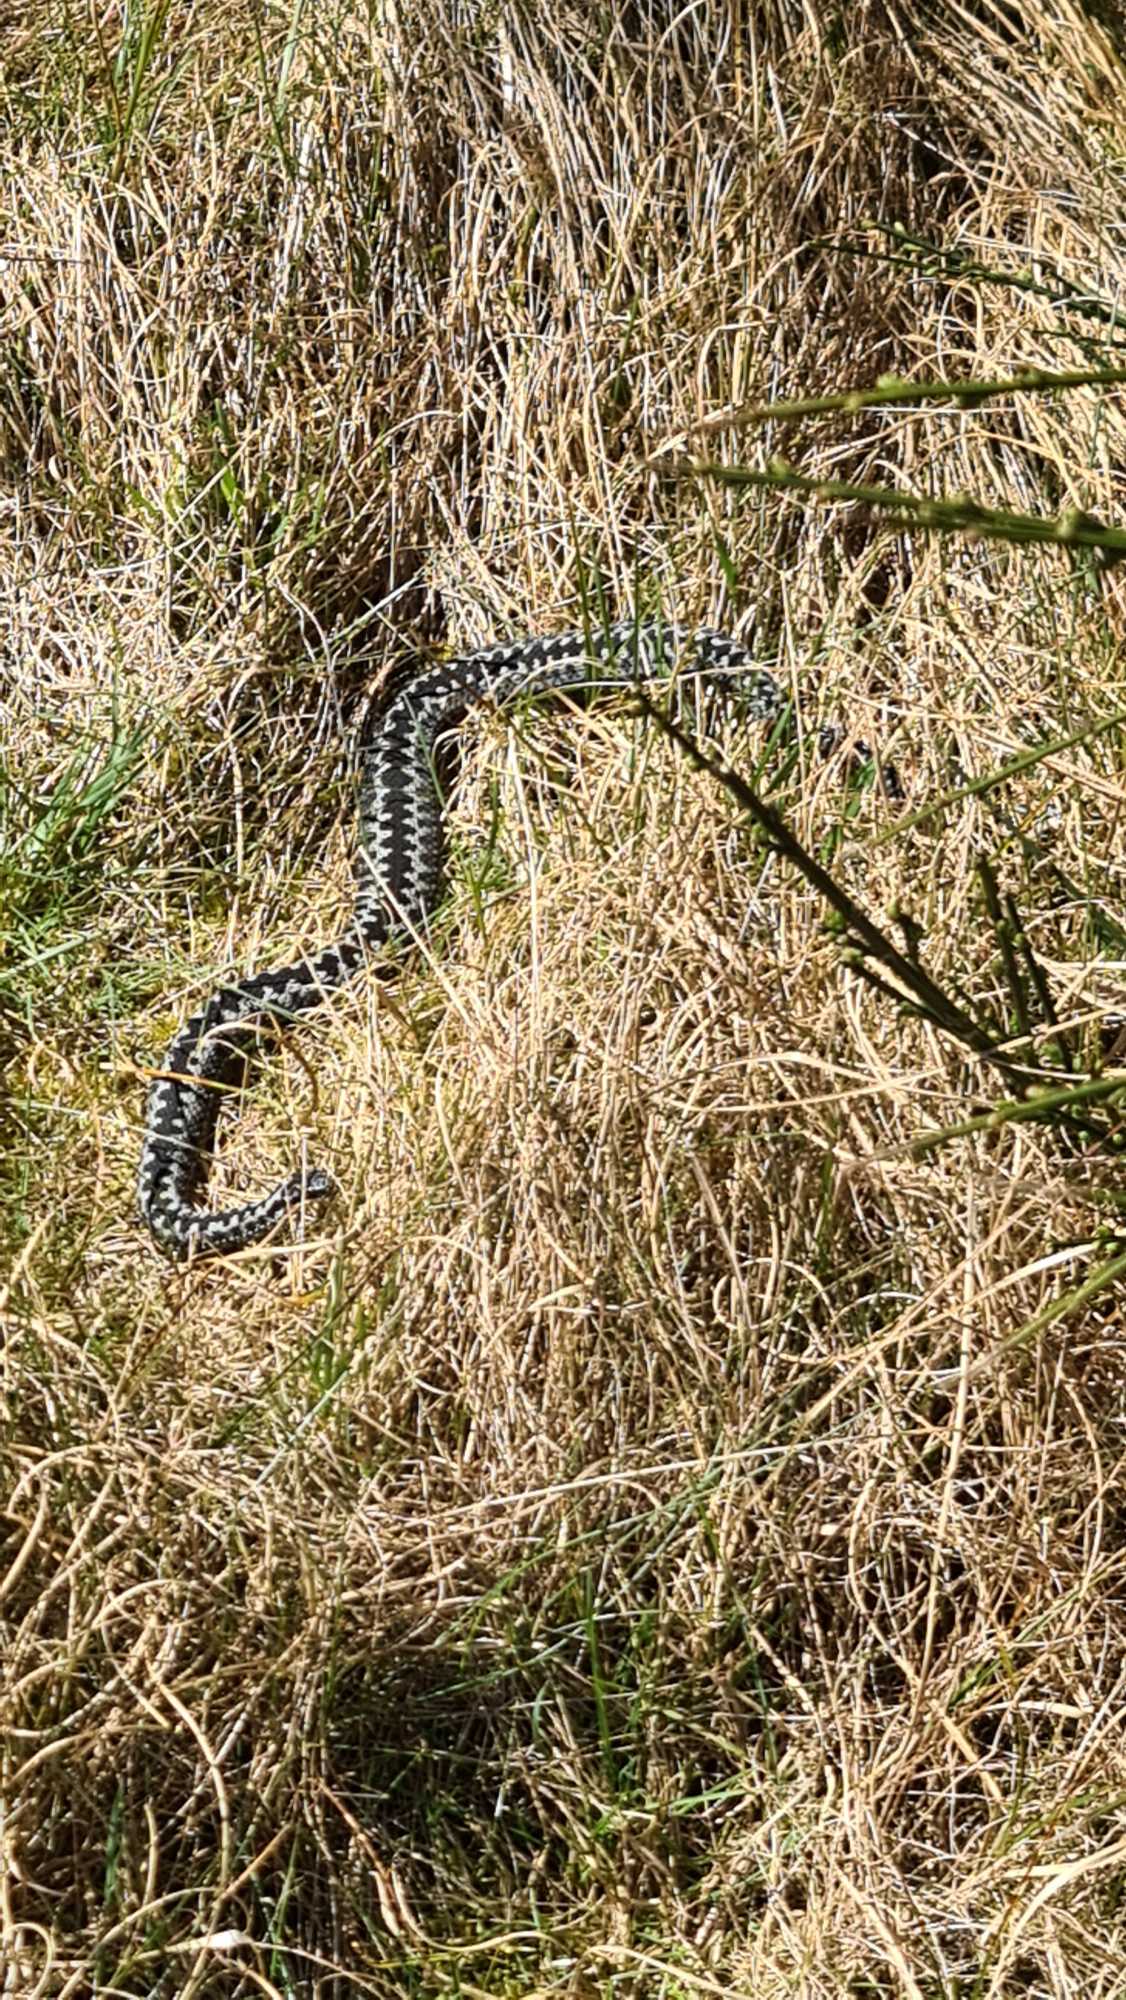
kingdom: Animalia
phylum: Chordata
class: Squamata
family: Viperidae
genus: Vipera
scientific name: Vipera berus
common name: Hugorm
